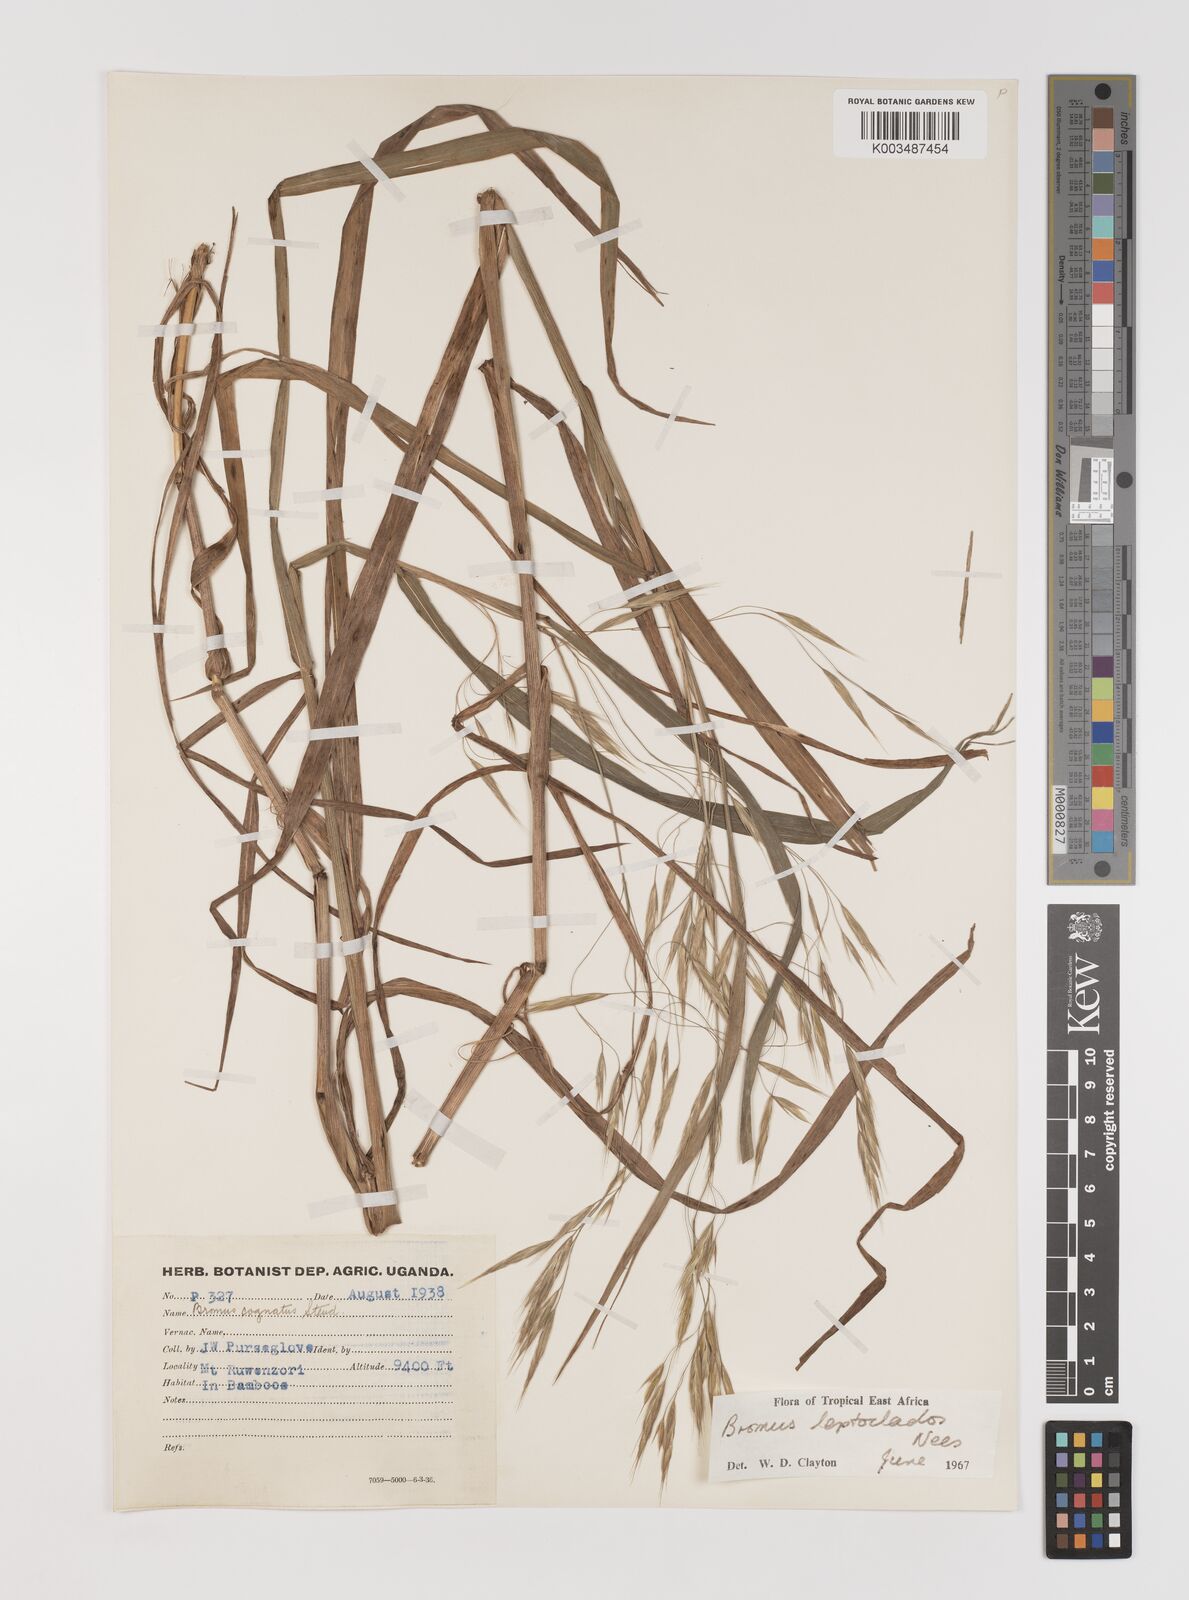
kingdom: Plantae
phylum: Tracheophyta
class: Liliopsida
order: Poales
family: Poaceae
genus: Bromus
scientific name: Bromus leptoclados
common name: Mountain bromegrass
